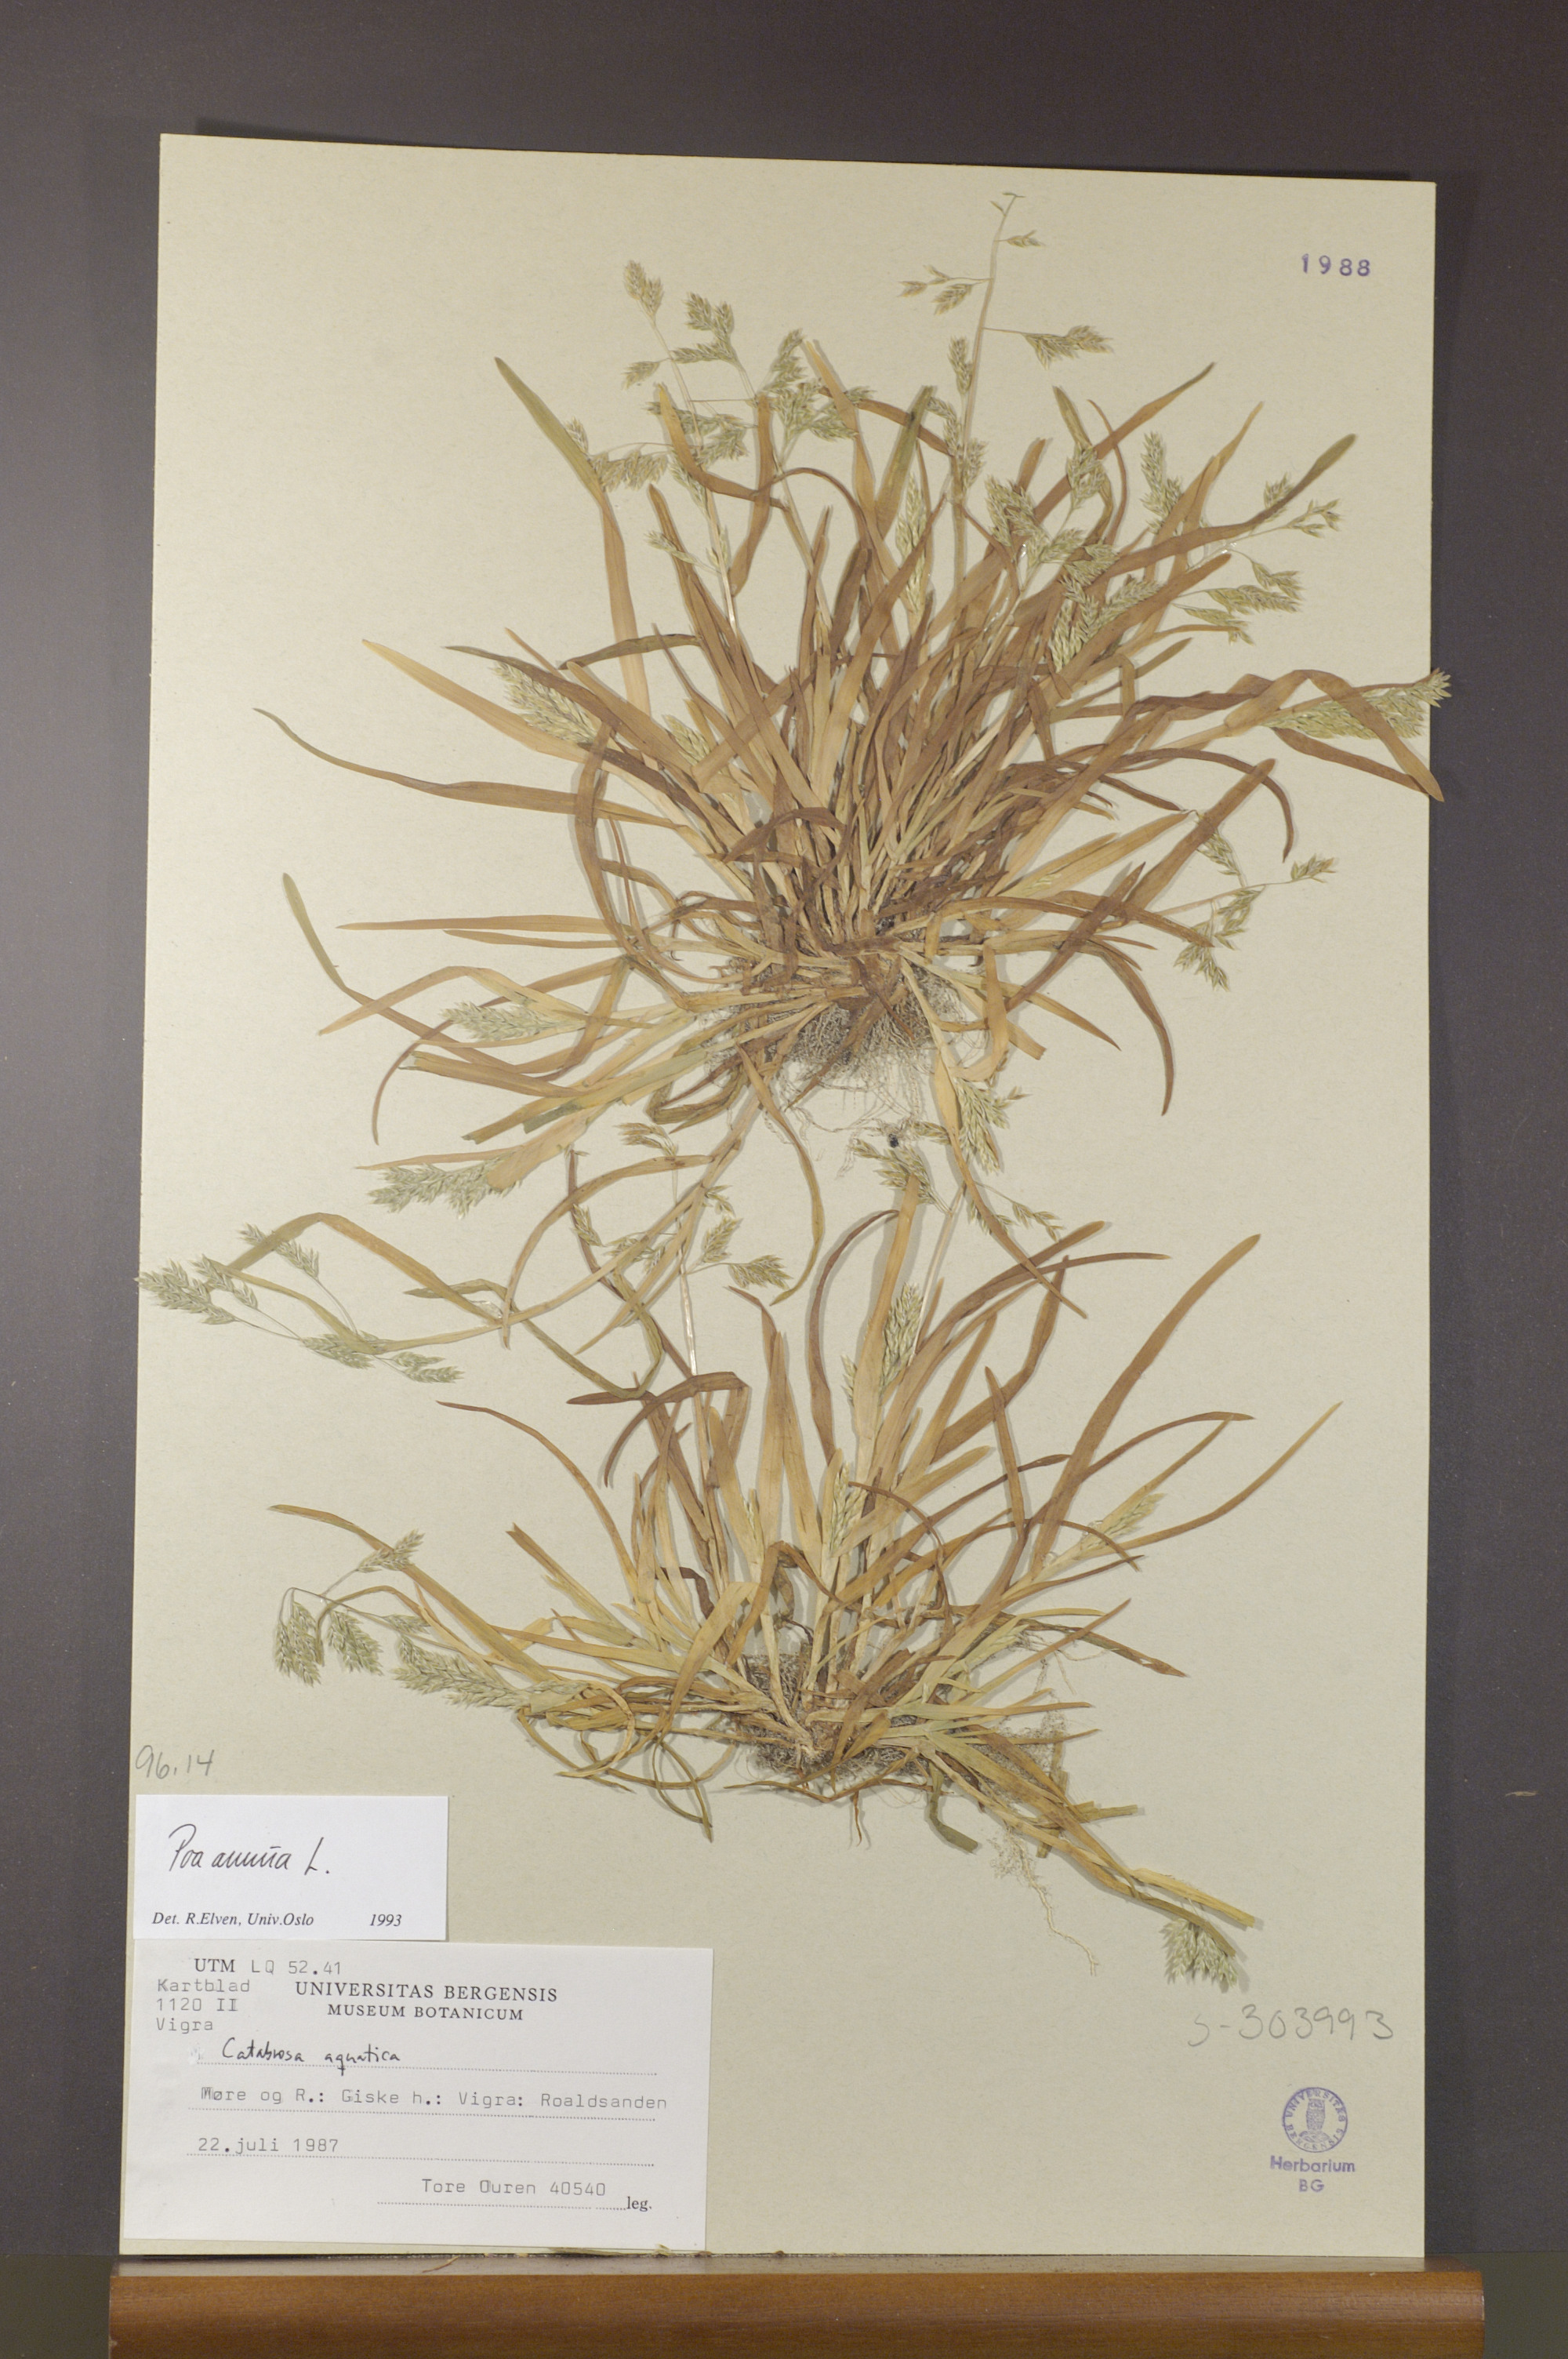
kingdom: Plantae
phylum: Tracheophyta
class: Liliopsida
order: Poales
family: Poaceae
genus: Poa
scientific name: Poa annua
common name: Annual bluegrass
